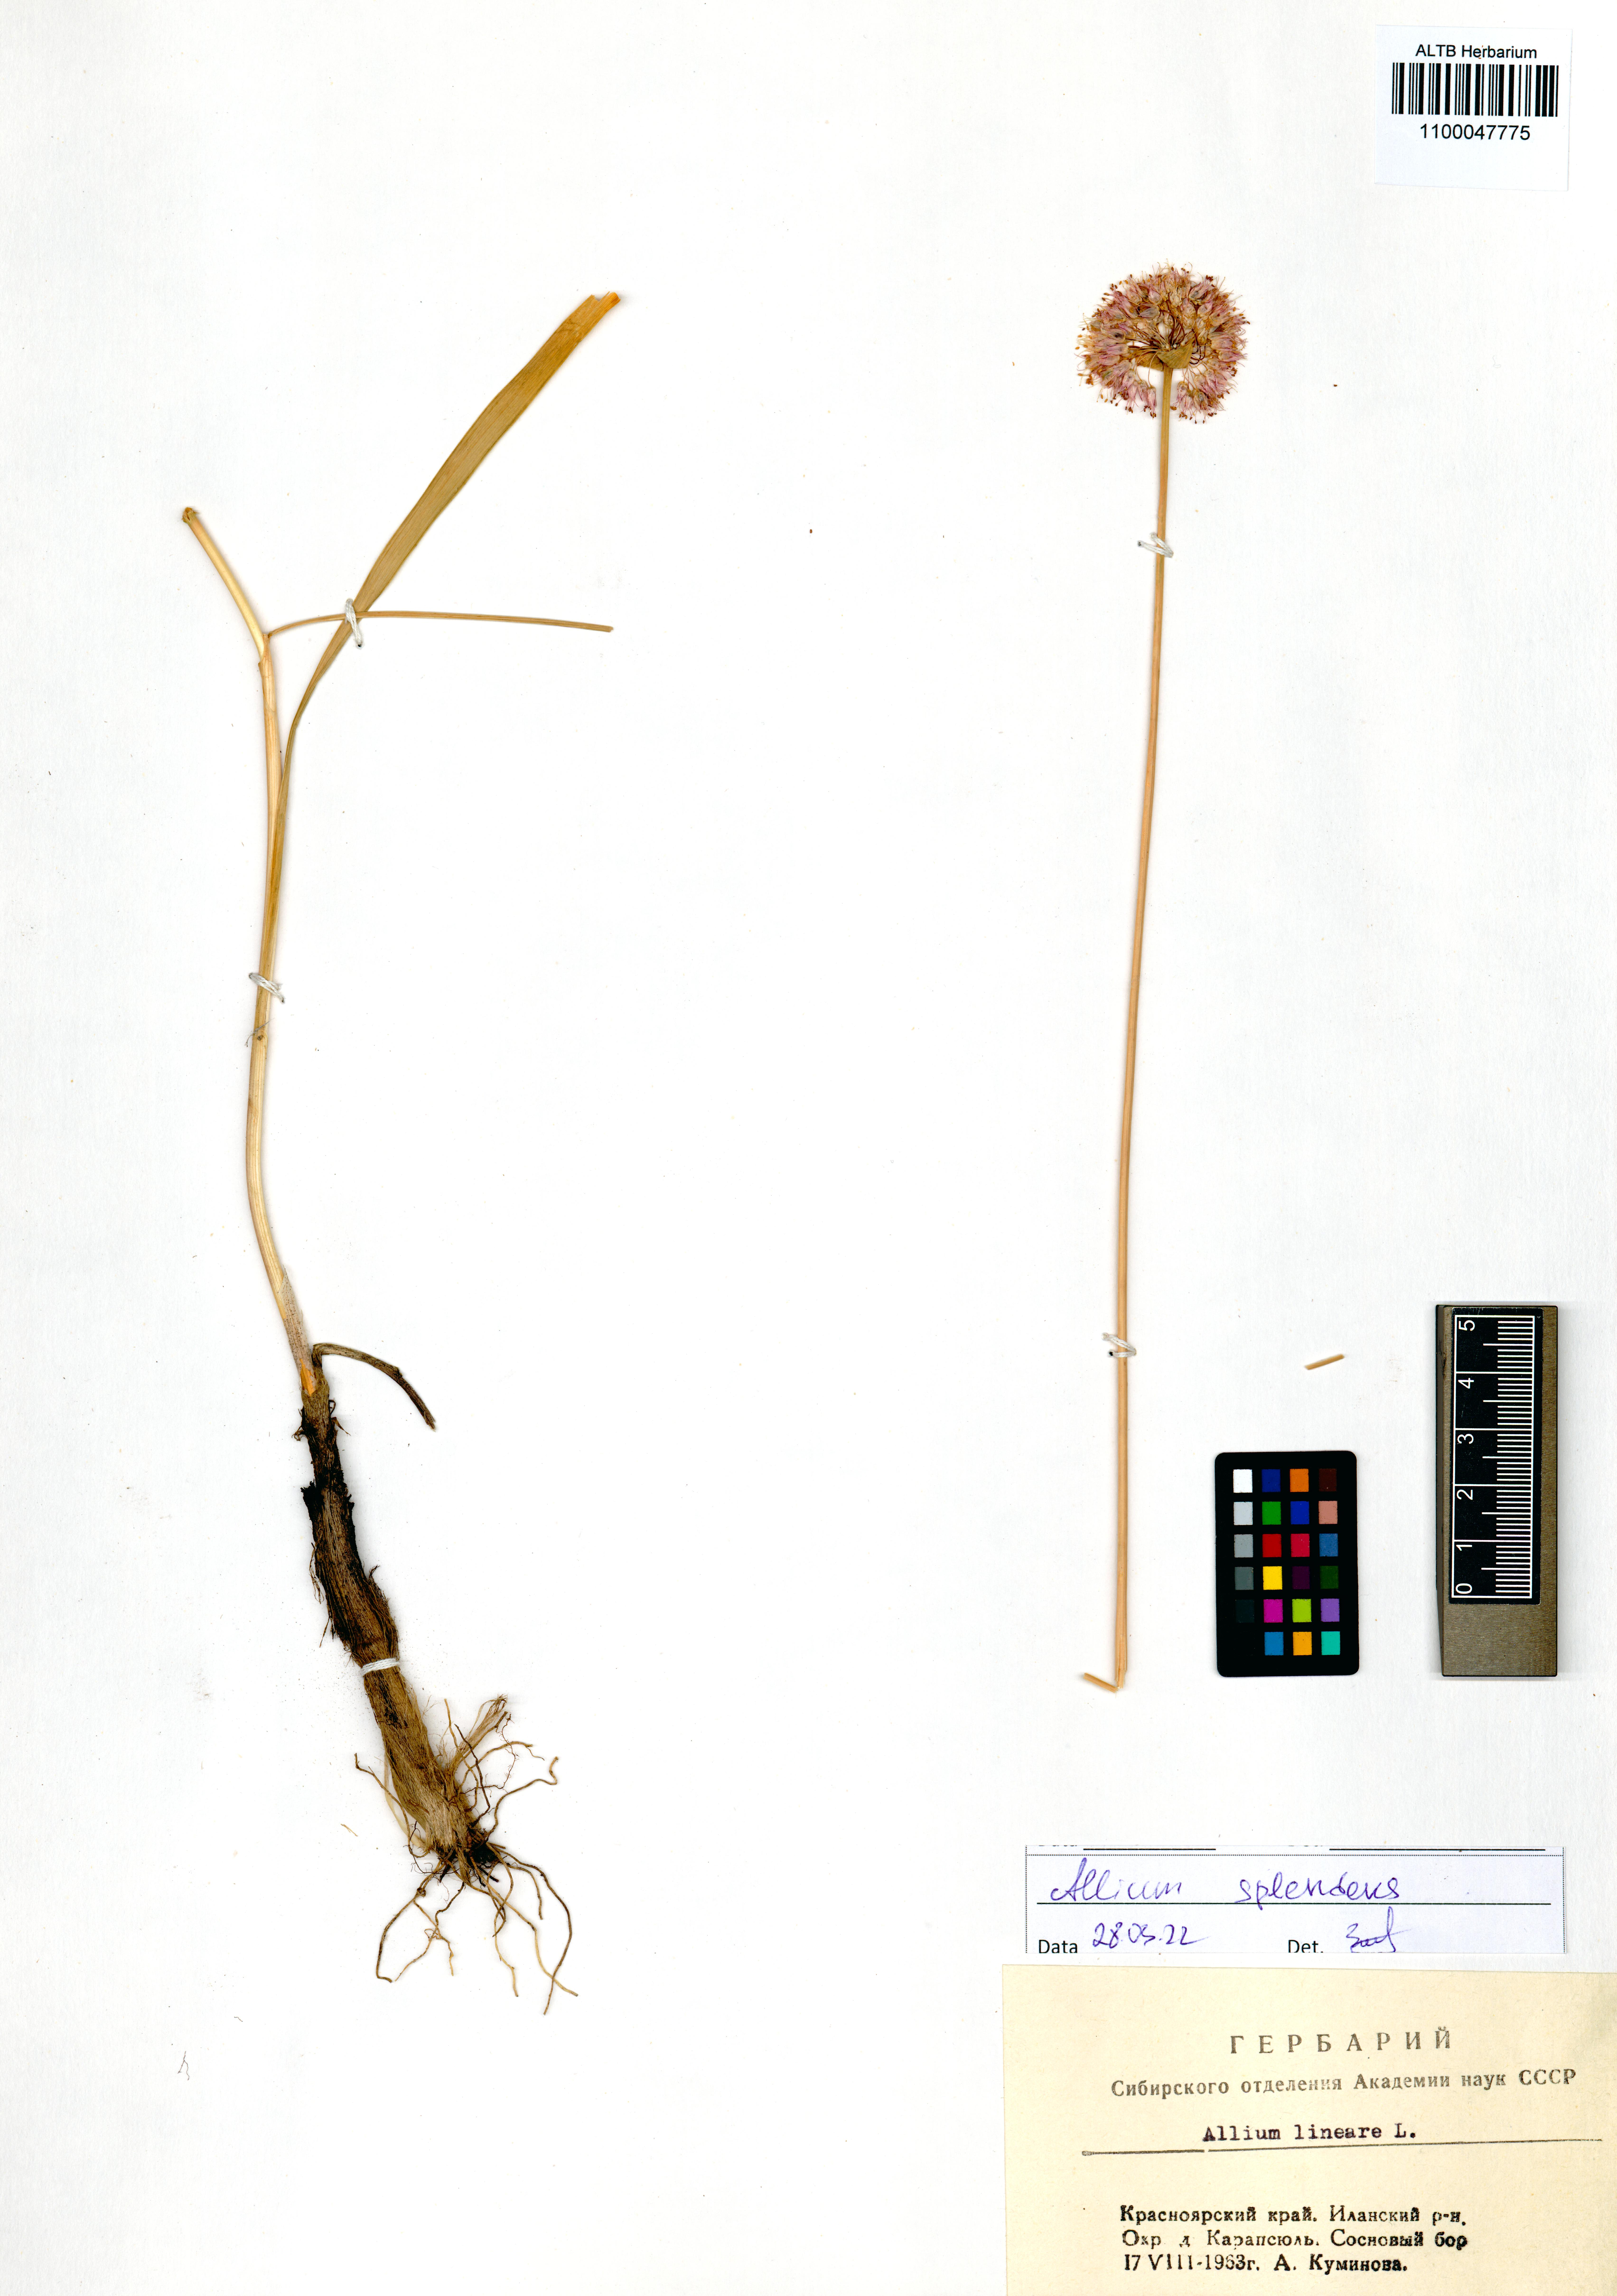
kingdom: Plantae
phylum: Tracheophyta
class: Liliopsida
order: Asparagales
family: Amaryllidaceae
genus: Allium
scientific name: Allium splendens
